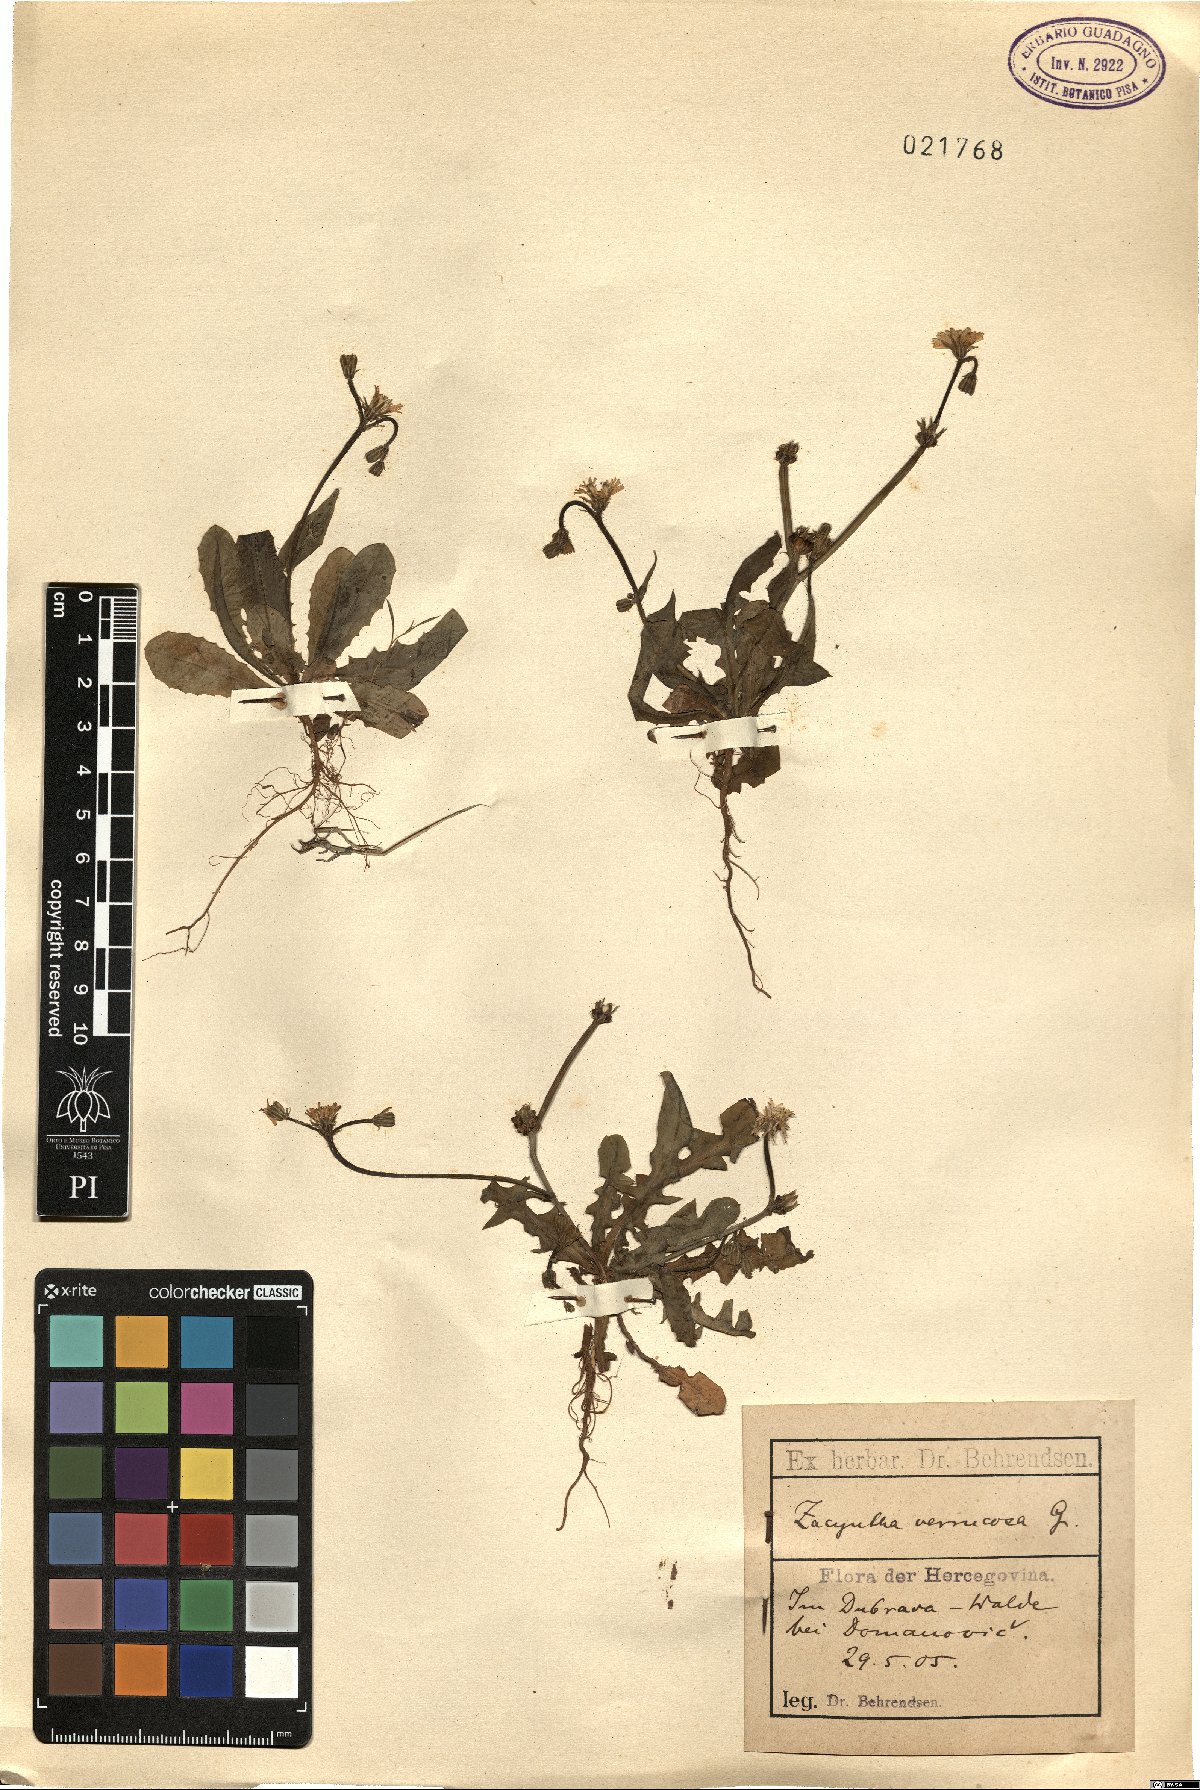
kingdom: Plantae
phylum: Tracheophyta
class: Magnoliopsida
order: Asterales
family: Asteraceae
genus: Crepis
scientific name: Crepis zacintha
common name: Striped hawksbeard
